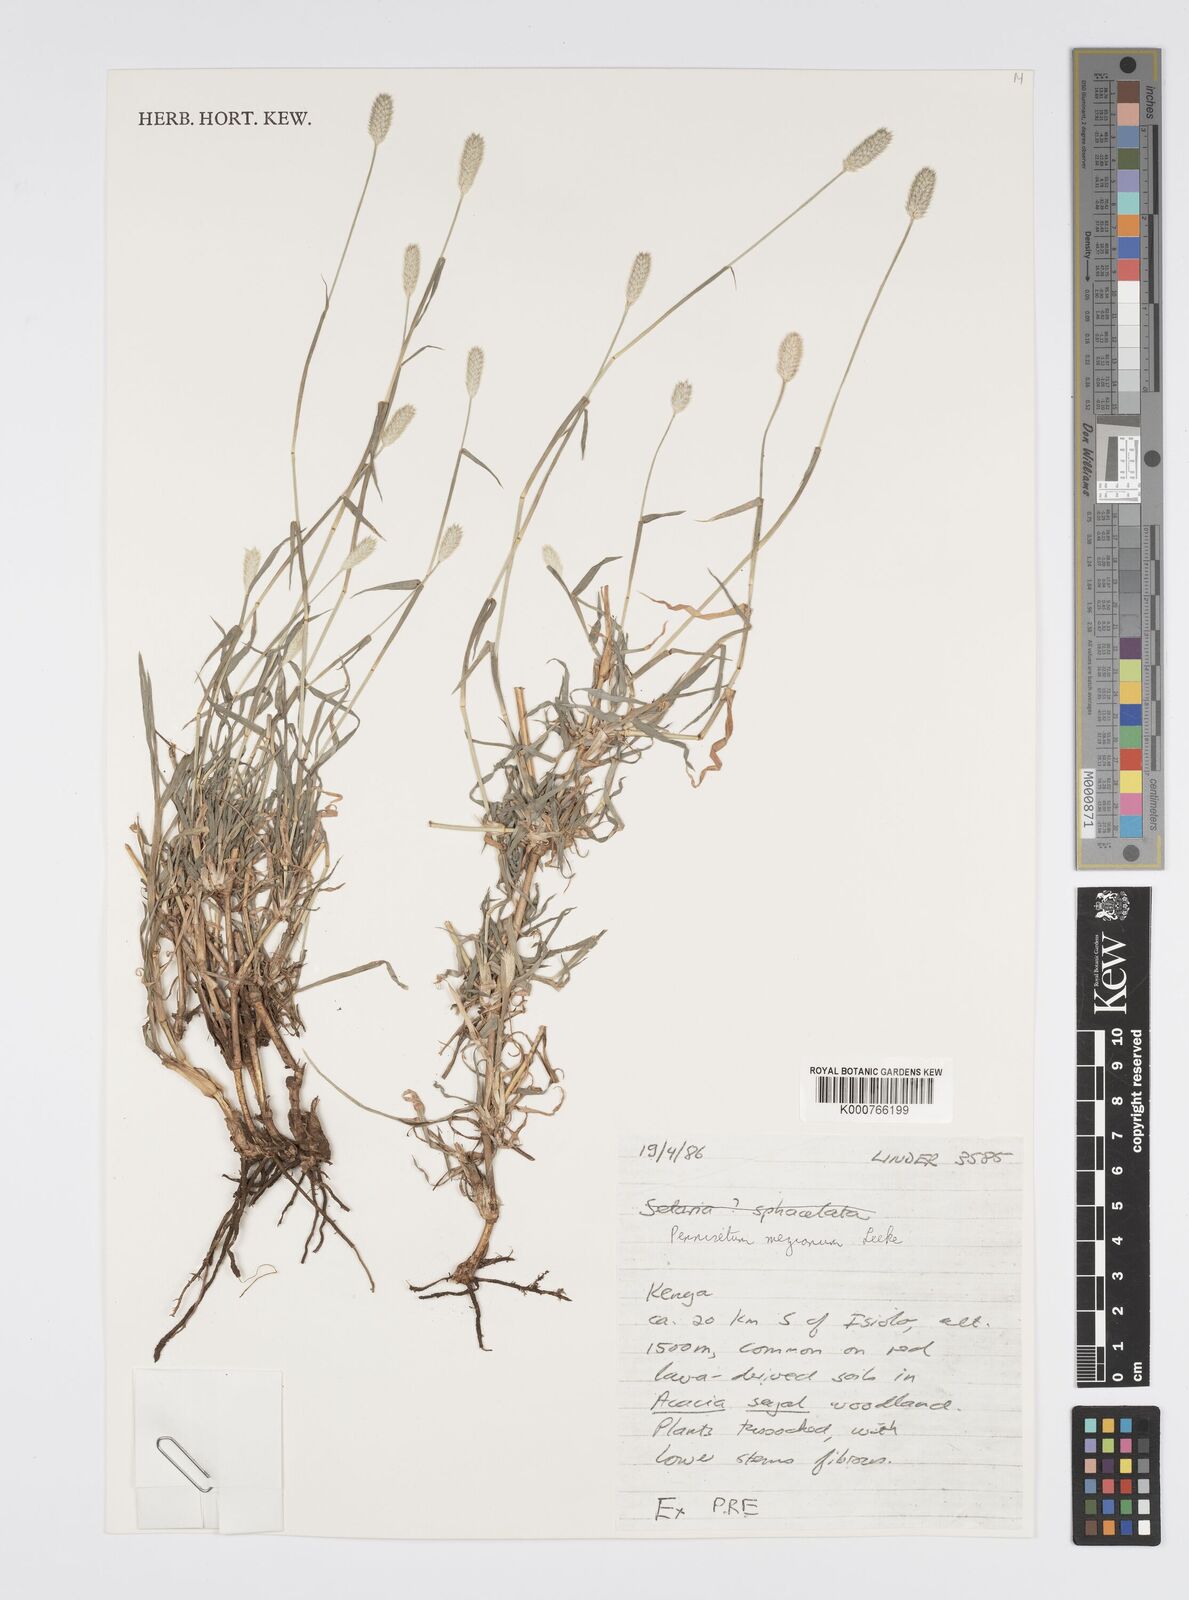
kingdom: Plantae
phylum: Tracheophyta
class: Liliopsida
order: Poales
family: Poaceae
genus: Cenchrus
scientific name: Cenchrus mezianus
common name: Bamboo grass
